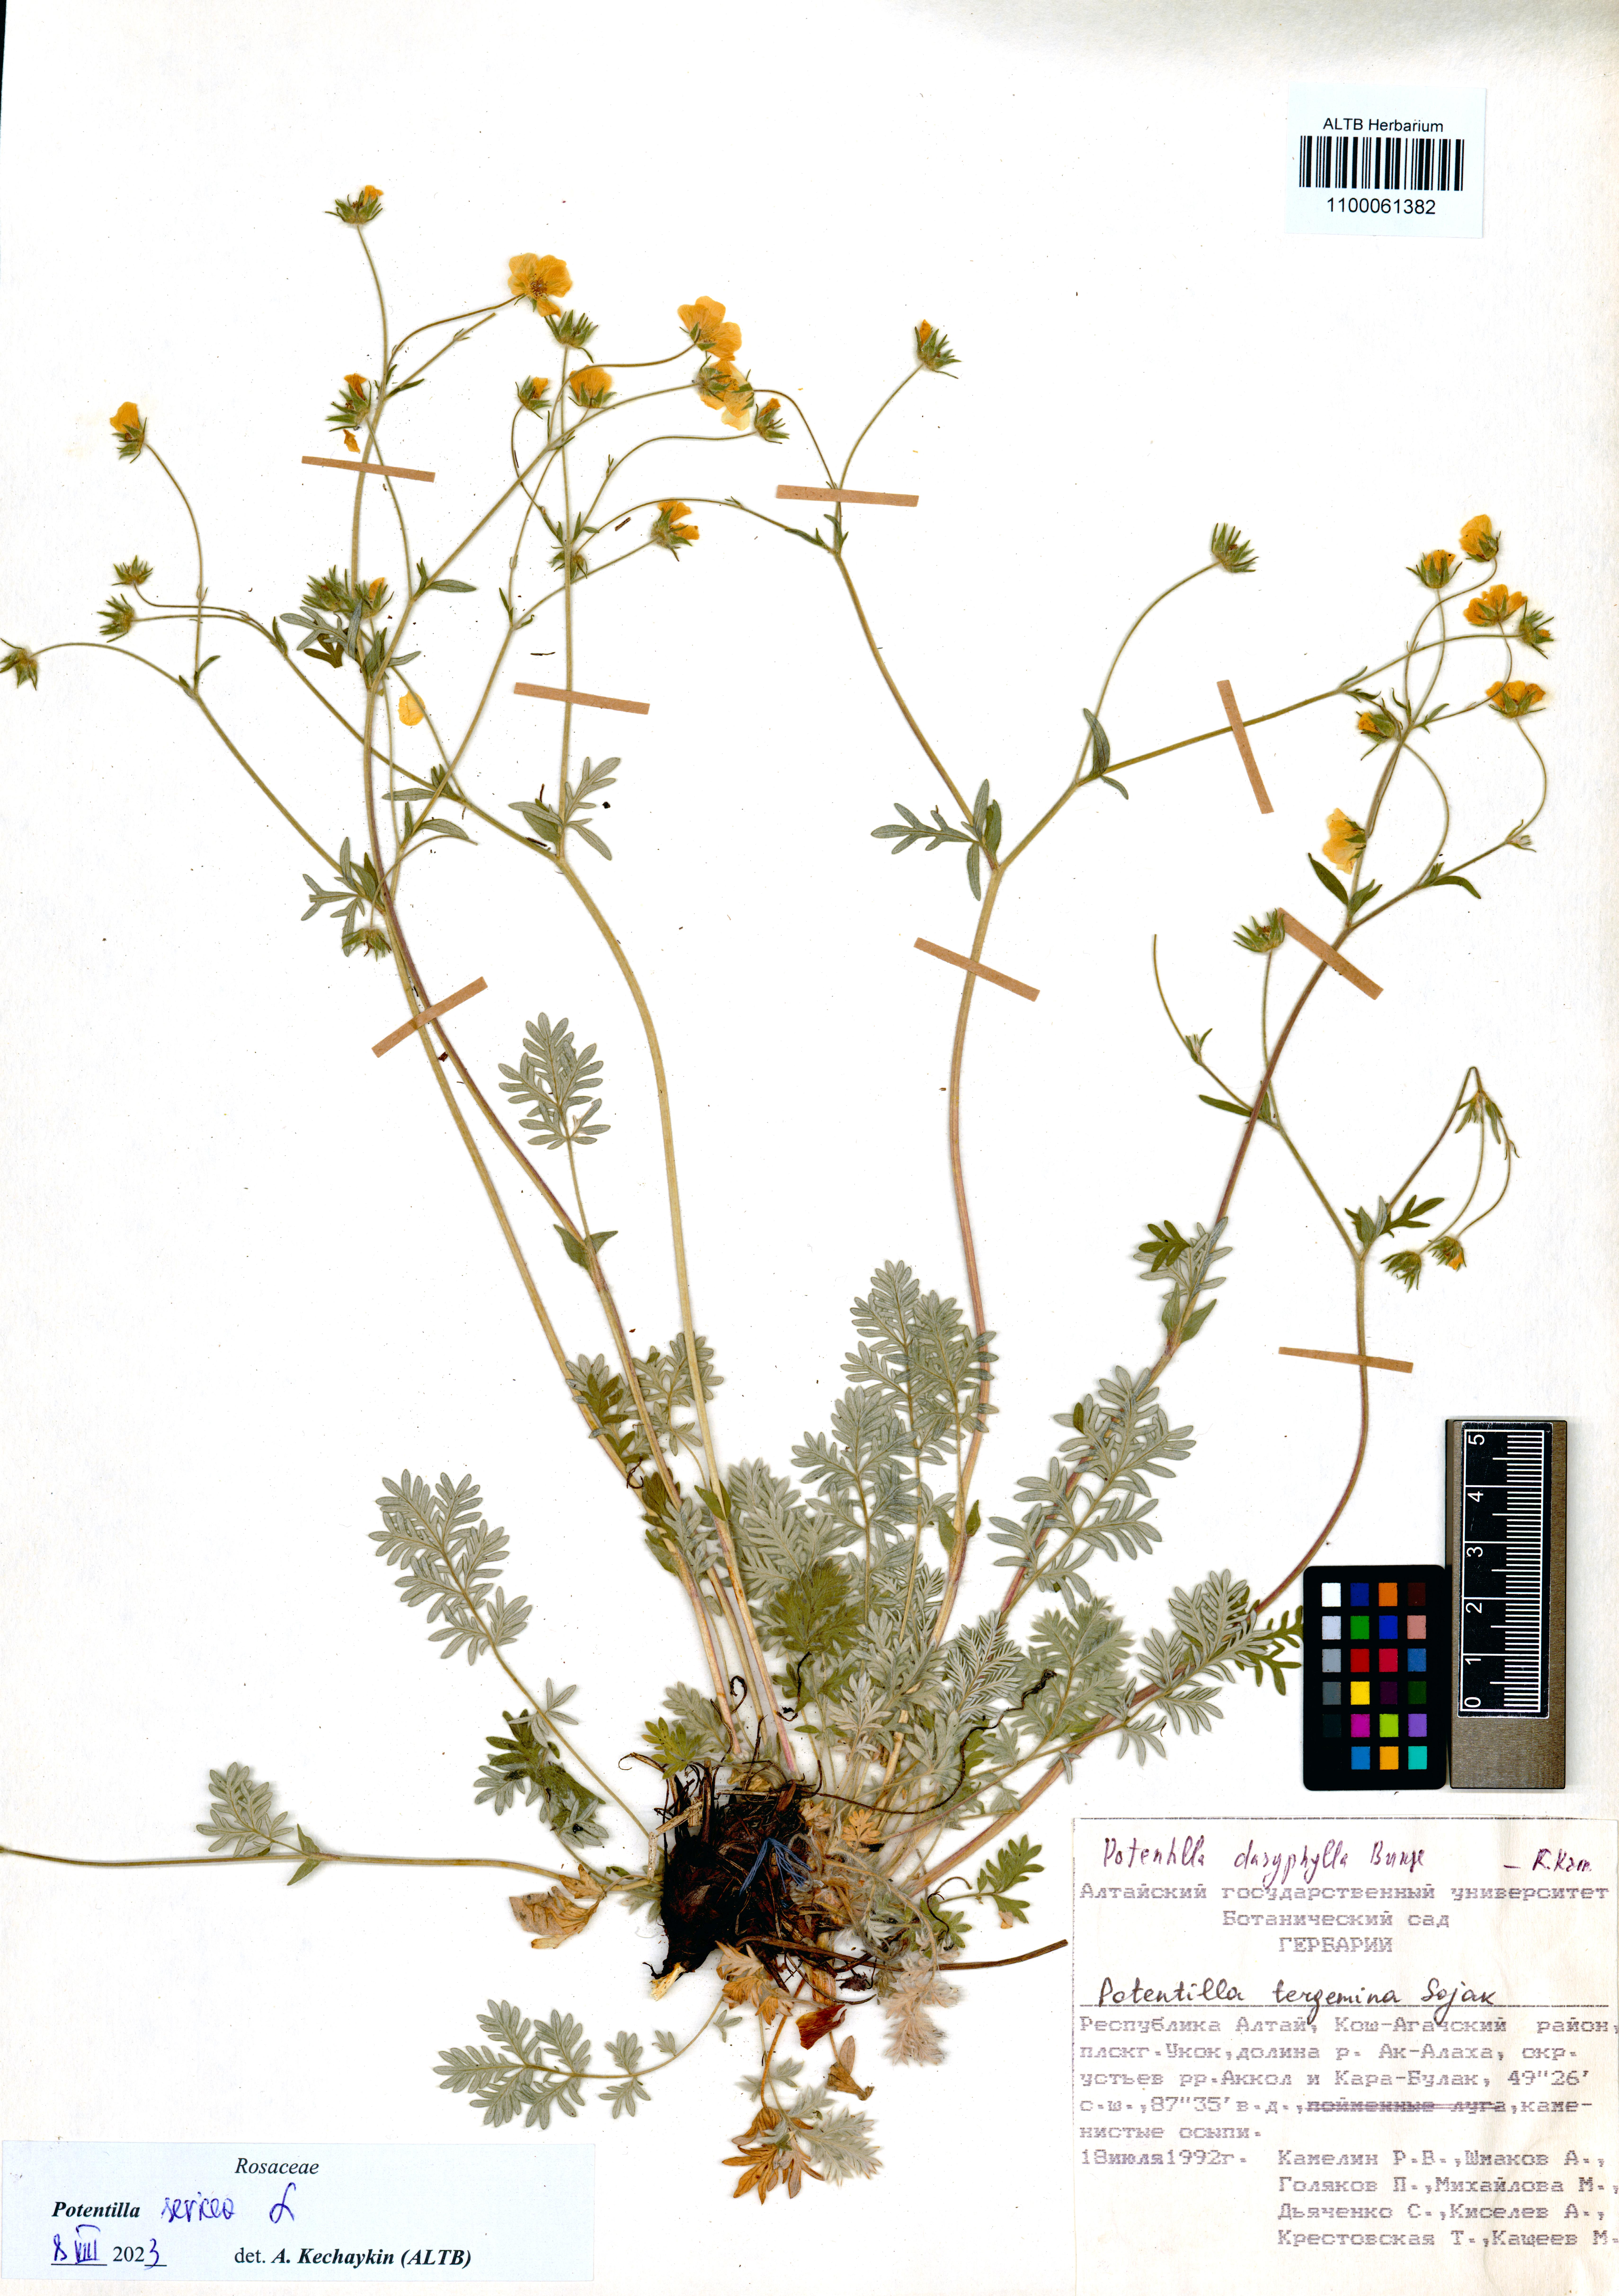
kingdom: Plantae
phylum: Tracheophyta
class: Magnoliopsida
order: Rosales
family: Rosaceae
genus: Potentilla
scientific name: Potentilla sericea
